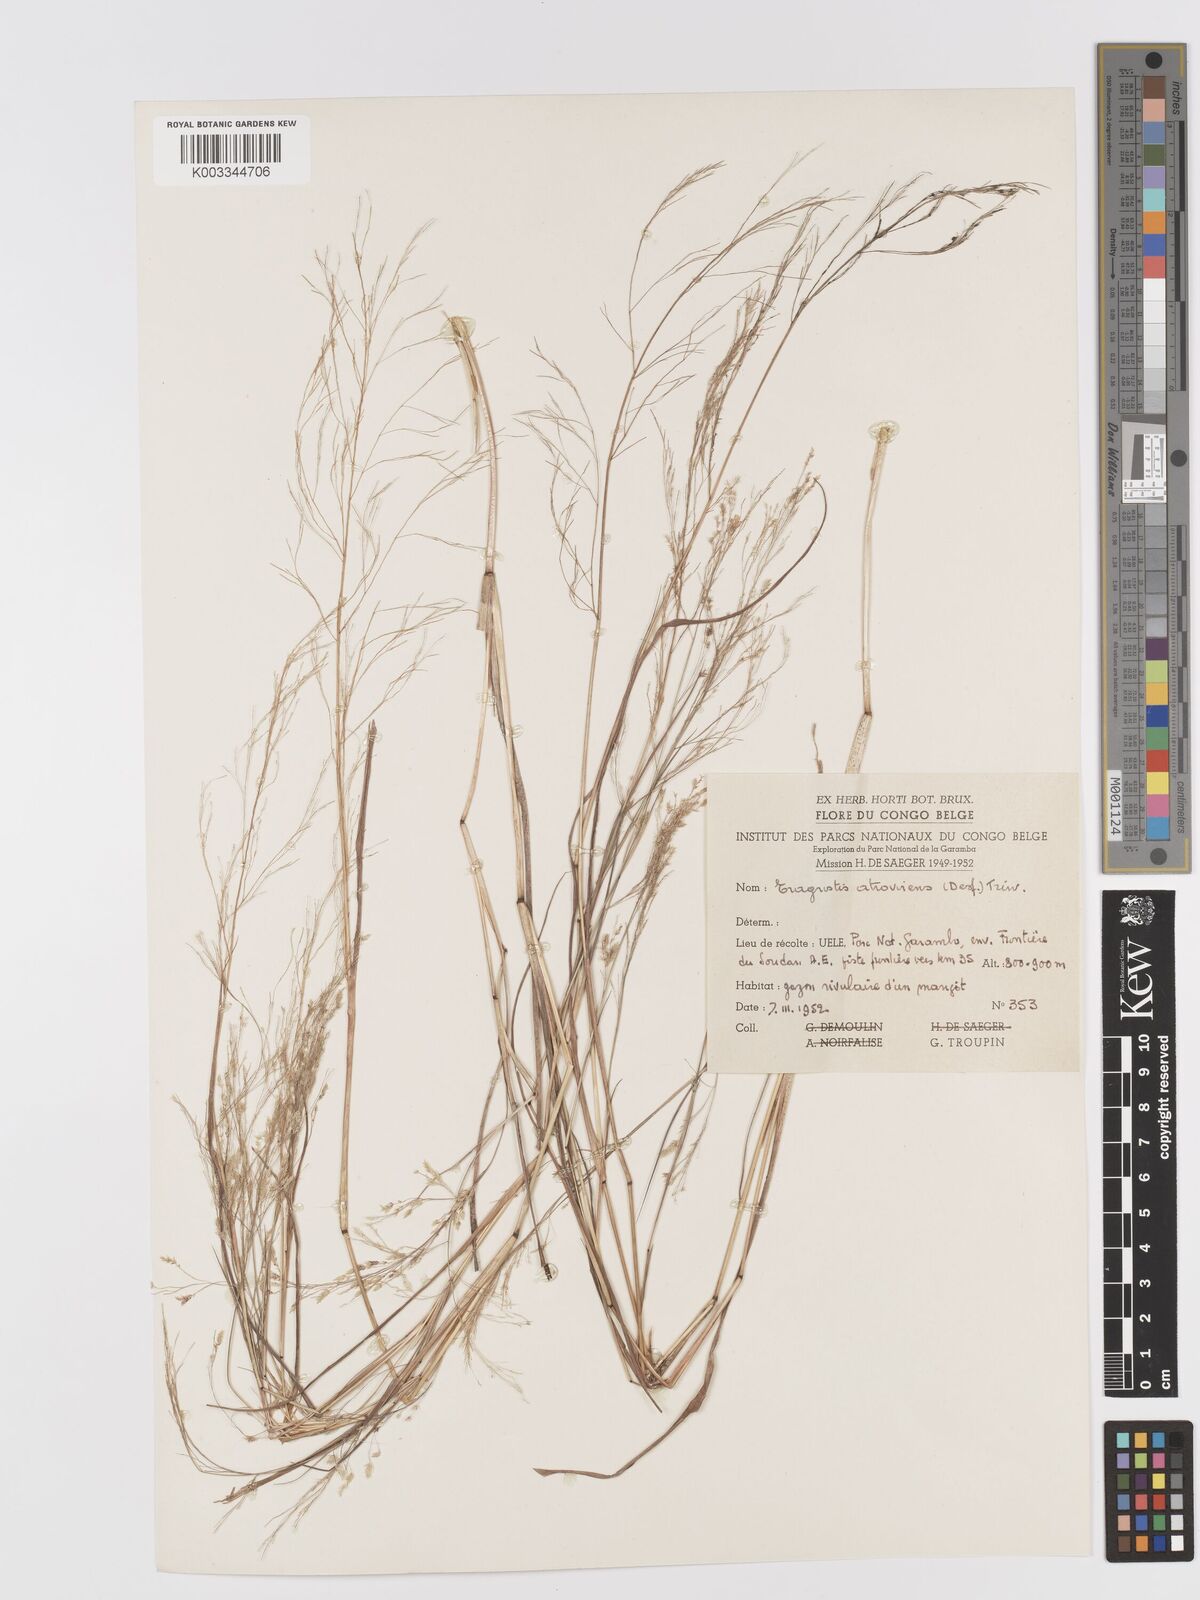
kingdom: Plantae
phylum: Tracheophyta
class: Liliopsida
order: Poales
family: Poaceae
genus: Eragrostis
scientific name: Eragrostis atrovirens
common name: Thalia lovegrass
